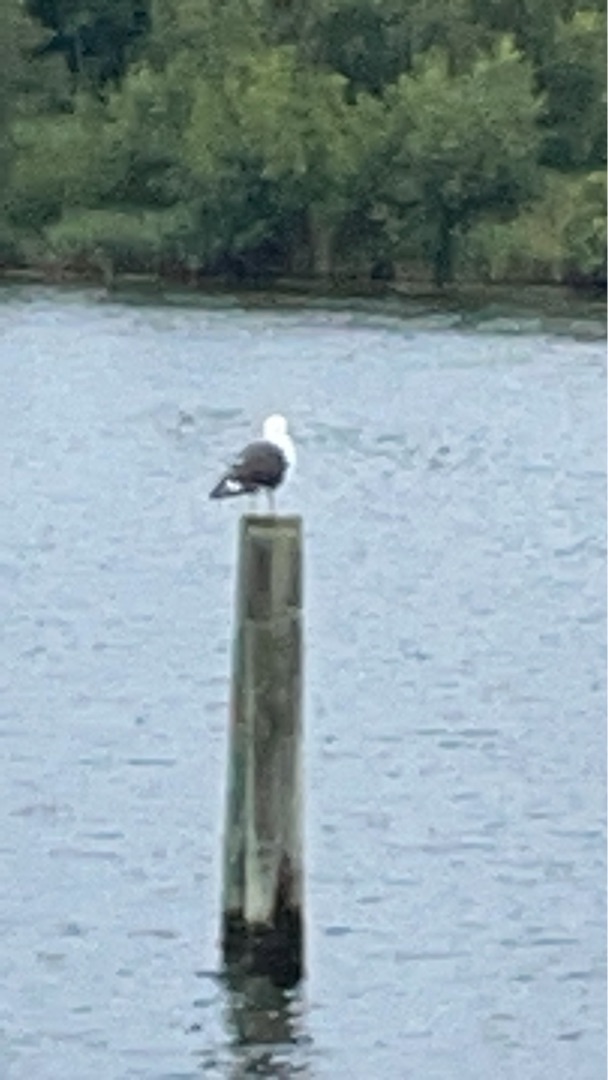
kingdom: Animalia
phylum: Chordata
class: Aves
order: Charadriiformes
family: Laridae
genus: Larus
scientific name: Larus marinus
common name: Svartbag
